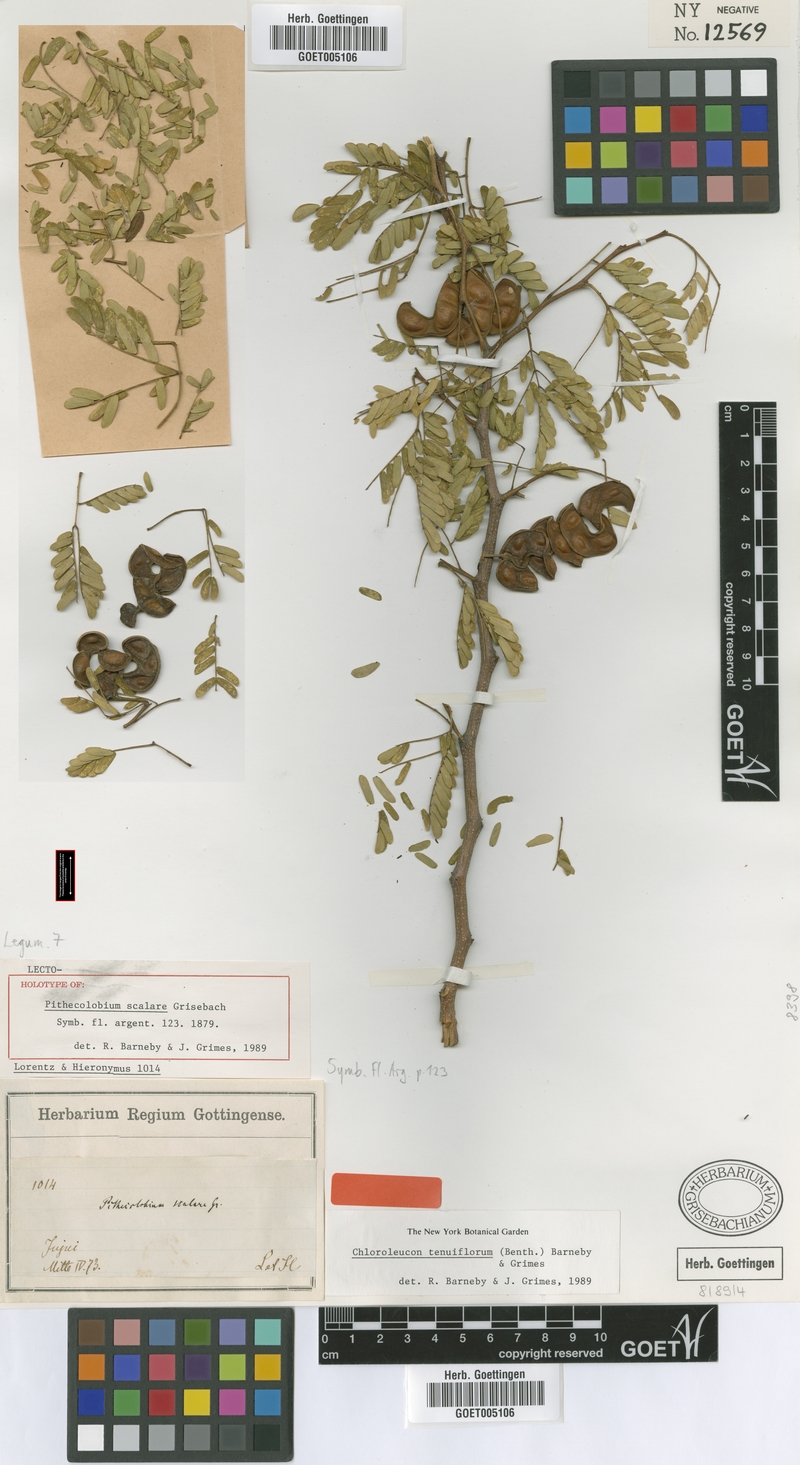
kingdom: Plantae
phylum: Tracheophyta
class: Magnoliopsida
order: Fabales
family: Fabaceae
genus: Chloroleucon
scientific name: Chloroleucon tenuiflorum
